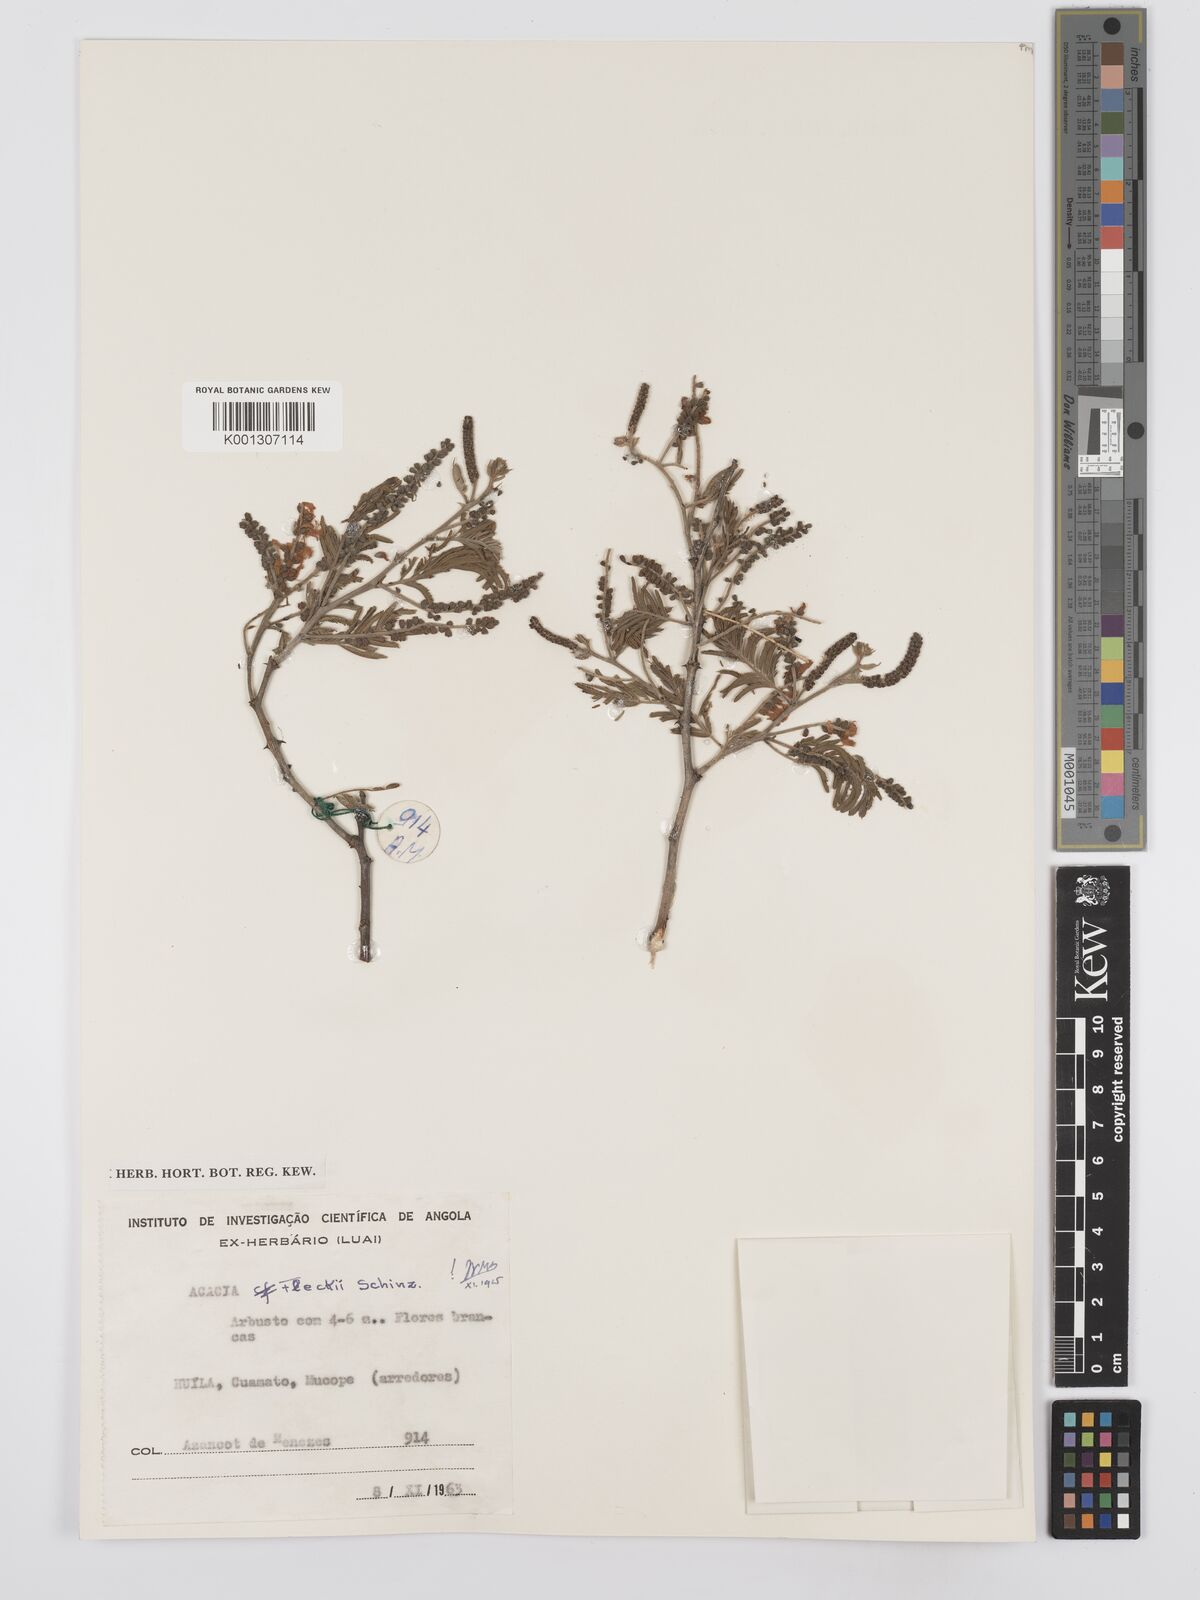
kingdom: Plantae
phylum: Tracheophyta
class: Magnoliopsida
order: Fabales
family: Fabaceae
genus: Senegalia
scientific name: Senegalia fleckii
